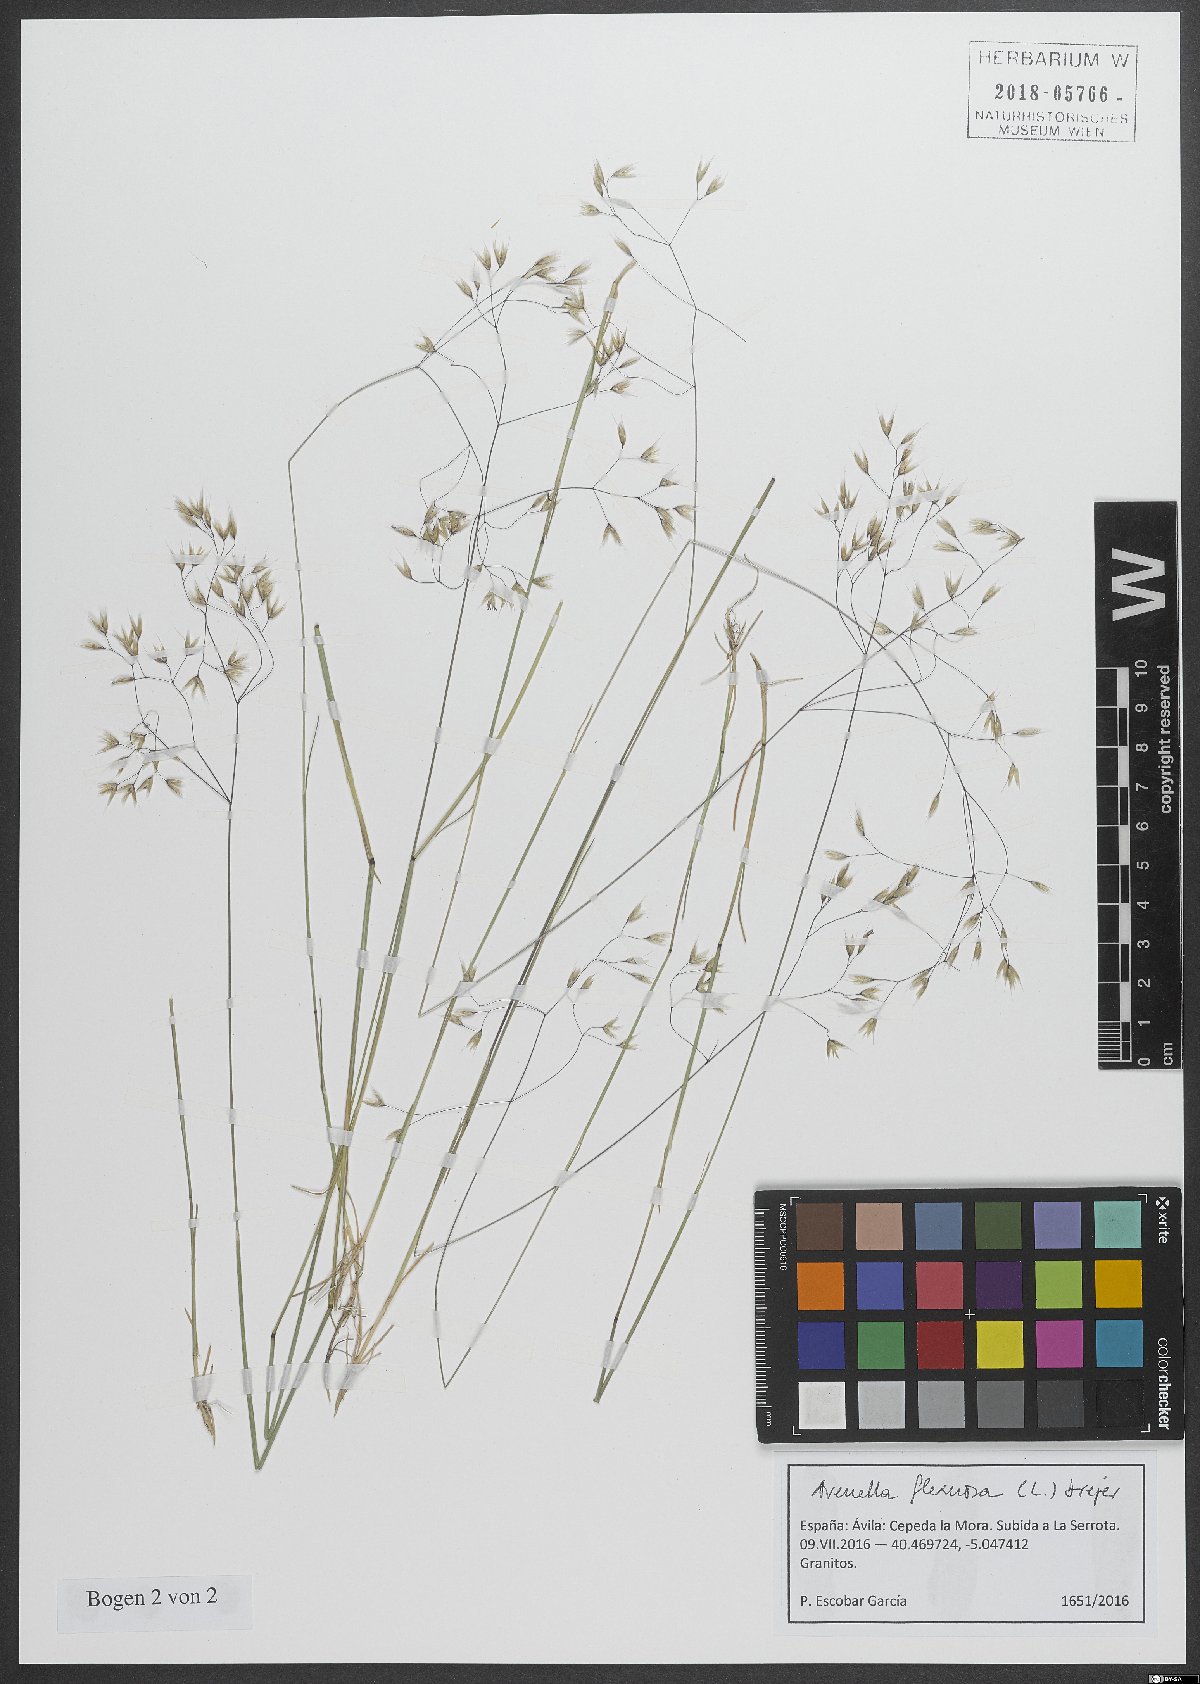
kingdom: Plantae
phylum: Tracheophyta
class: Liliopsida
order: Poales
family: Poaceae
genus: Avenella
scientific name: Avenella flexuosa
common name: Wavy hairgrass
